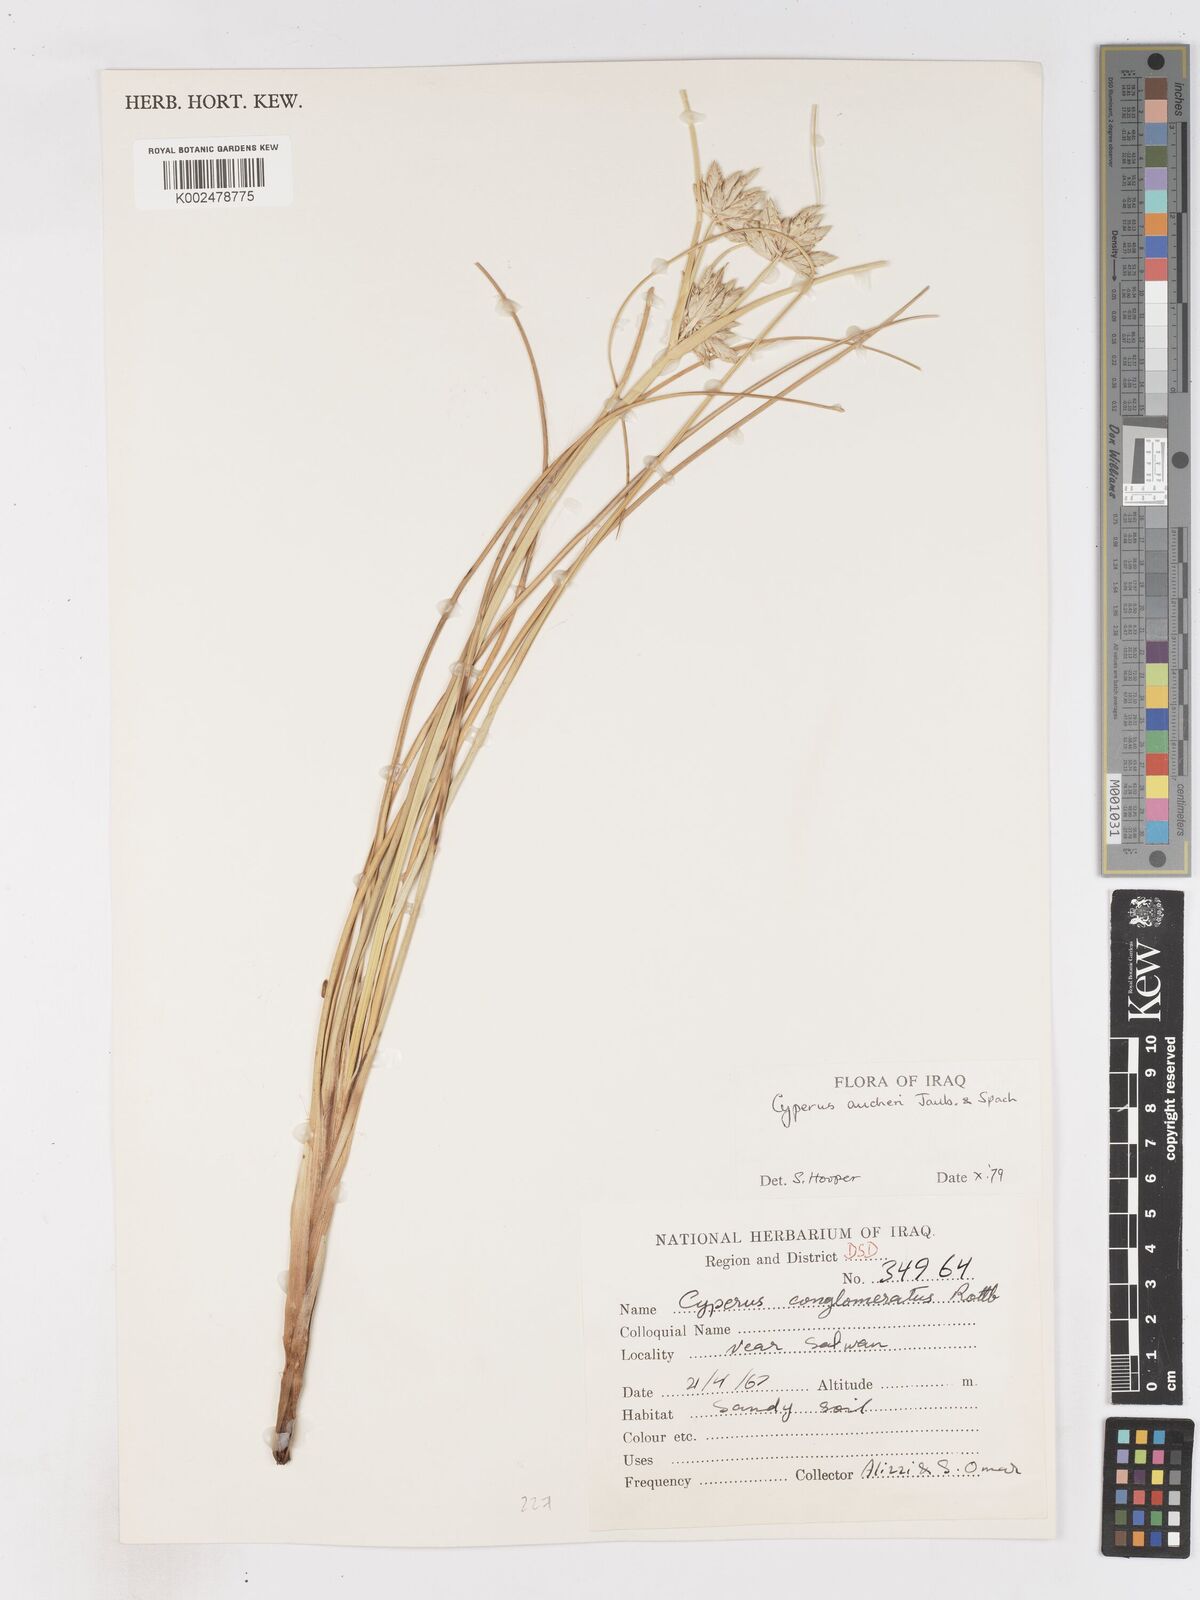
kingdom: Plantae
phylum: Tracheophyta
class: Liliopsida
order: Poales
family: Cyperaceae
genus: Cyperus
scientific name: Cyperus aucheri
